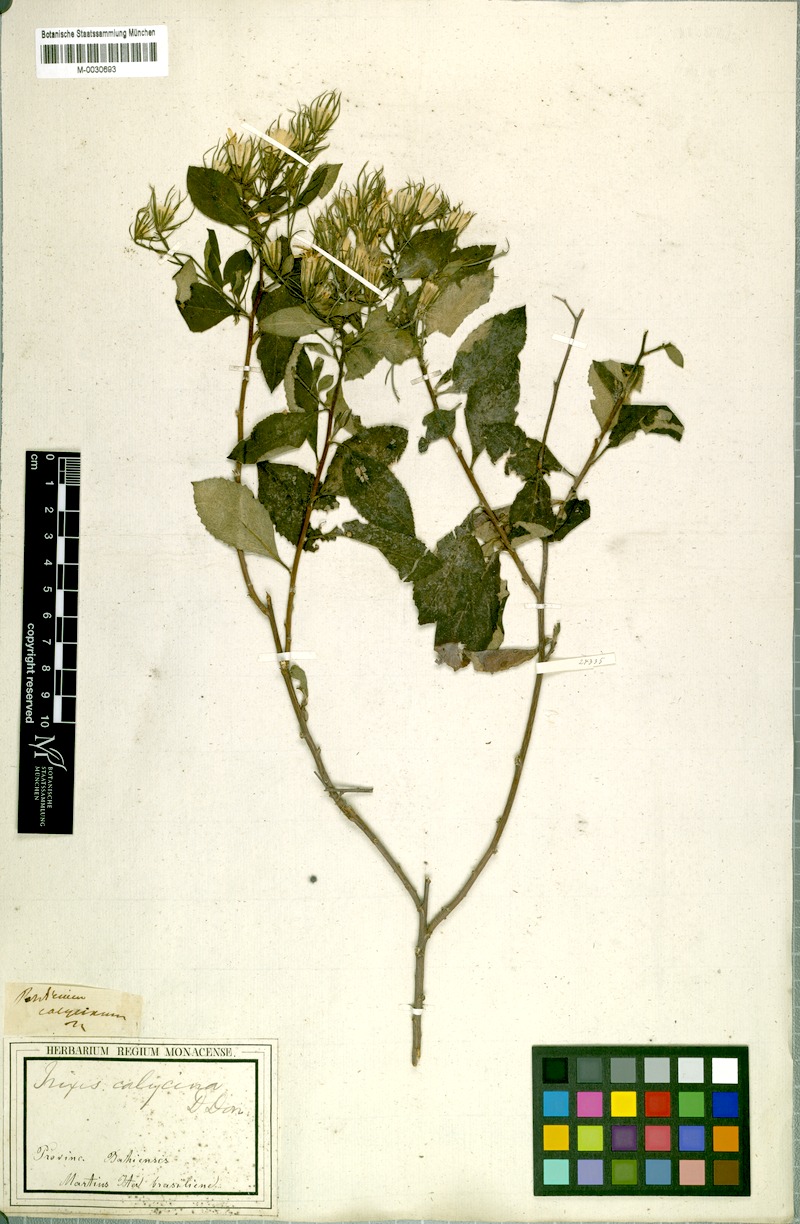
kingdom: Plantae
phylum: Tracheophyta
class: Magnoliopsida
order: Asterales
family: Asteraceae
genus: Trixis
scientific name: Trixis calycina
